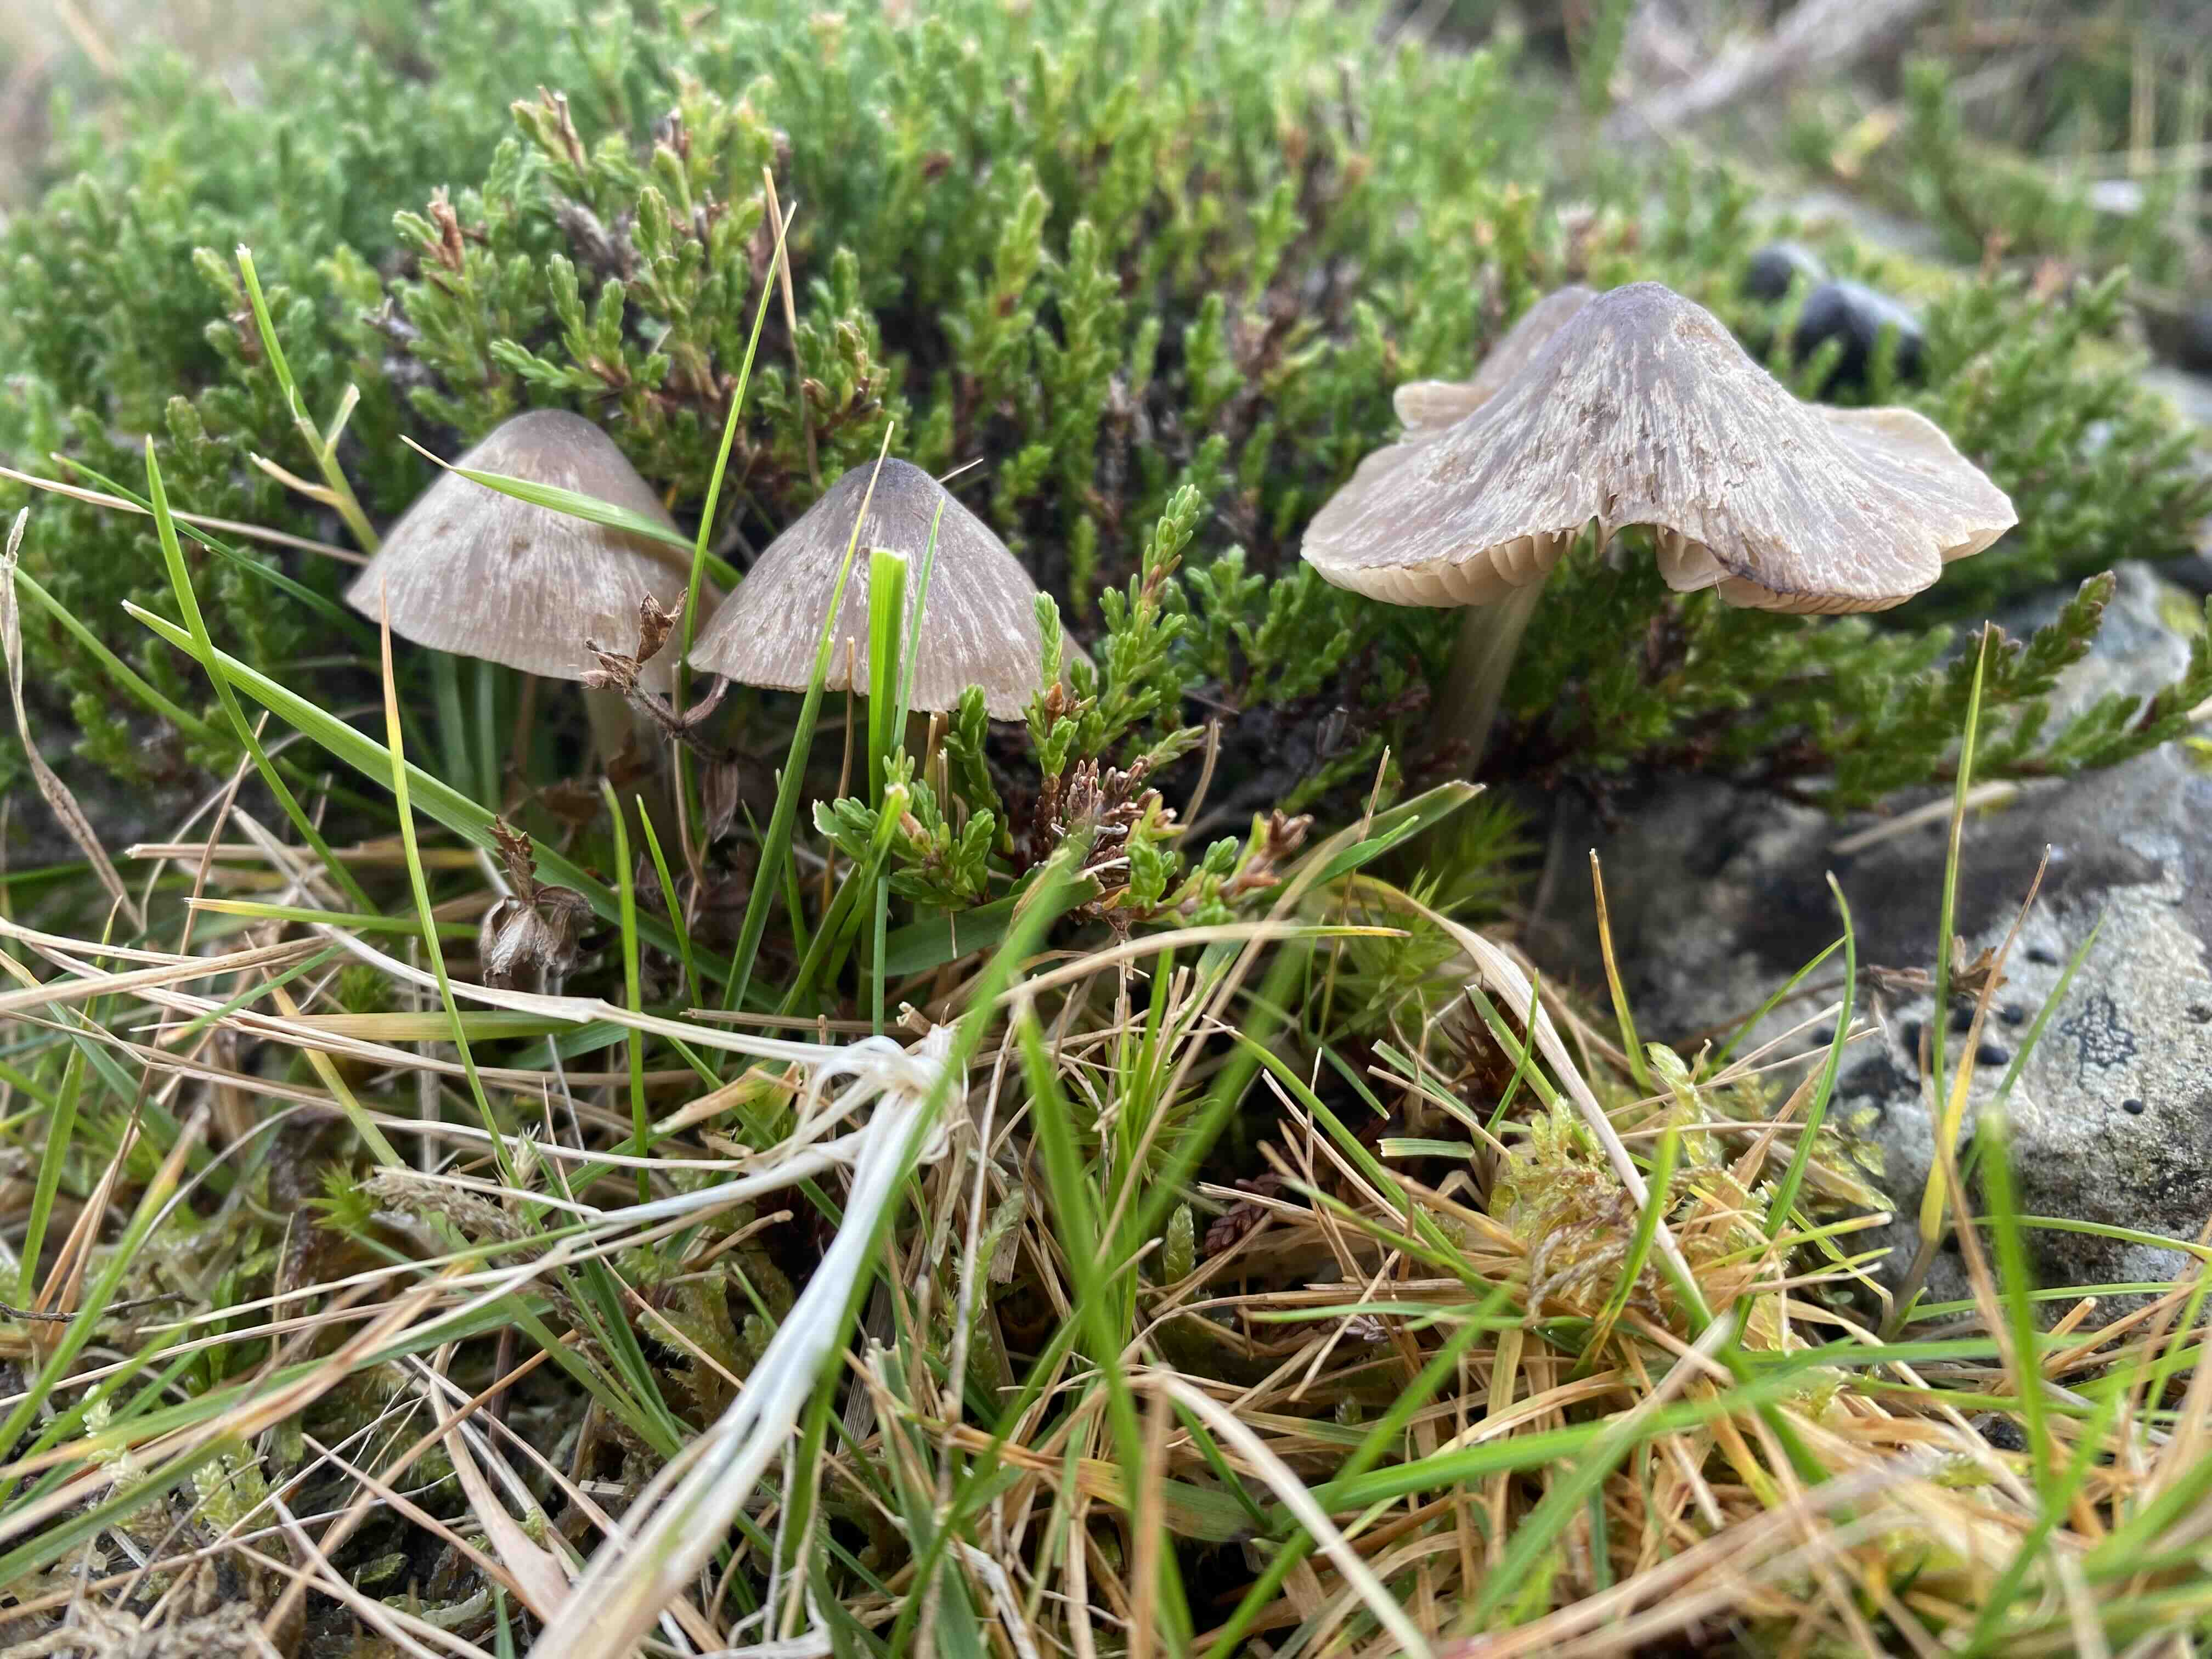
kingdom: Fungi
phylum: Basidiomycota
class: Agaricomycetes
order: Agaricales
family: Entolomataceae
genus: Entoloma
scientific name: Entoloma
